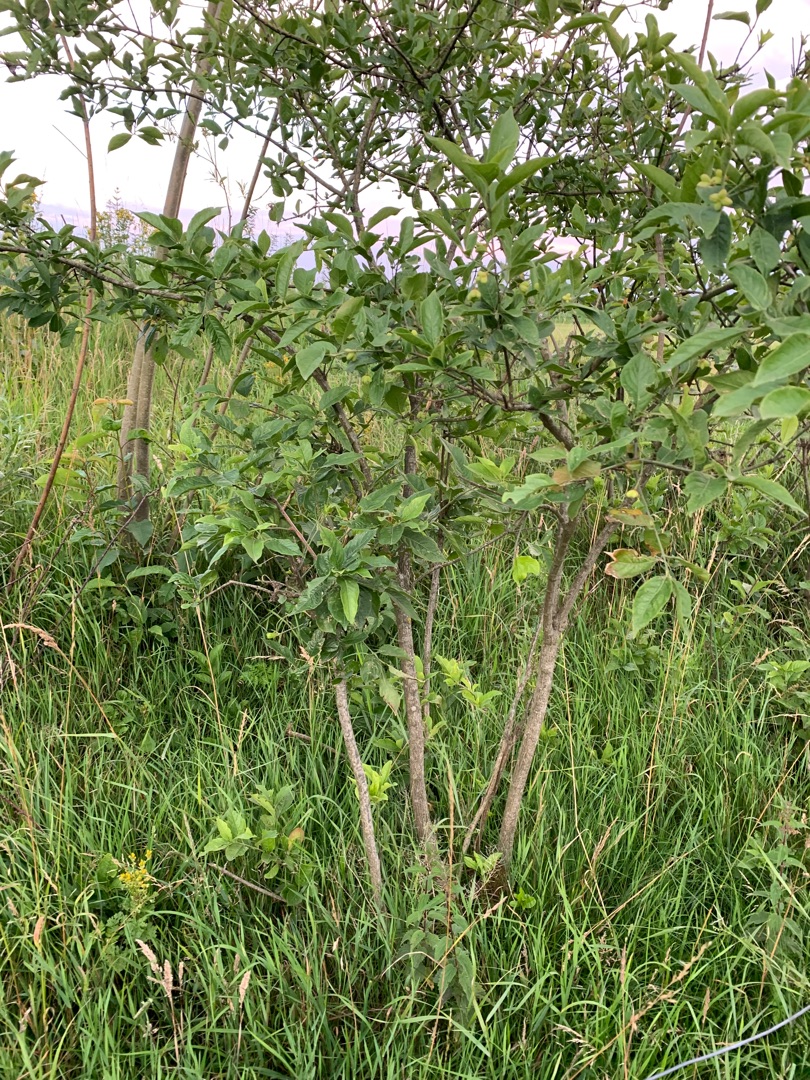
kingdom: Plantae
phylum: Tracheophyta
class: Magnoliopsida
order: Celastrales
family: Celastraceae
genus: Euonymus
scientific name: Euonymus europaeus
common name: Benved
